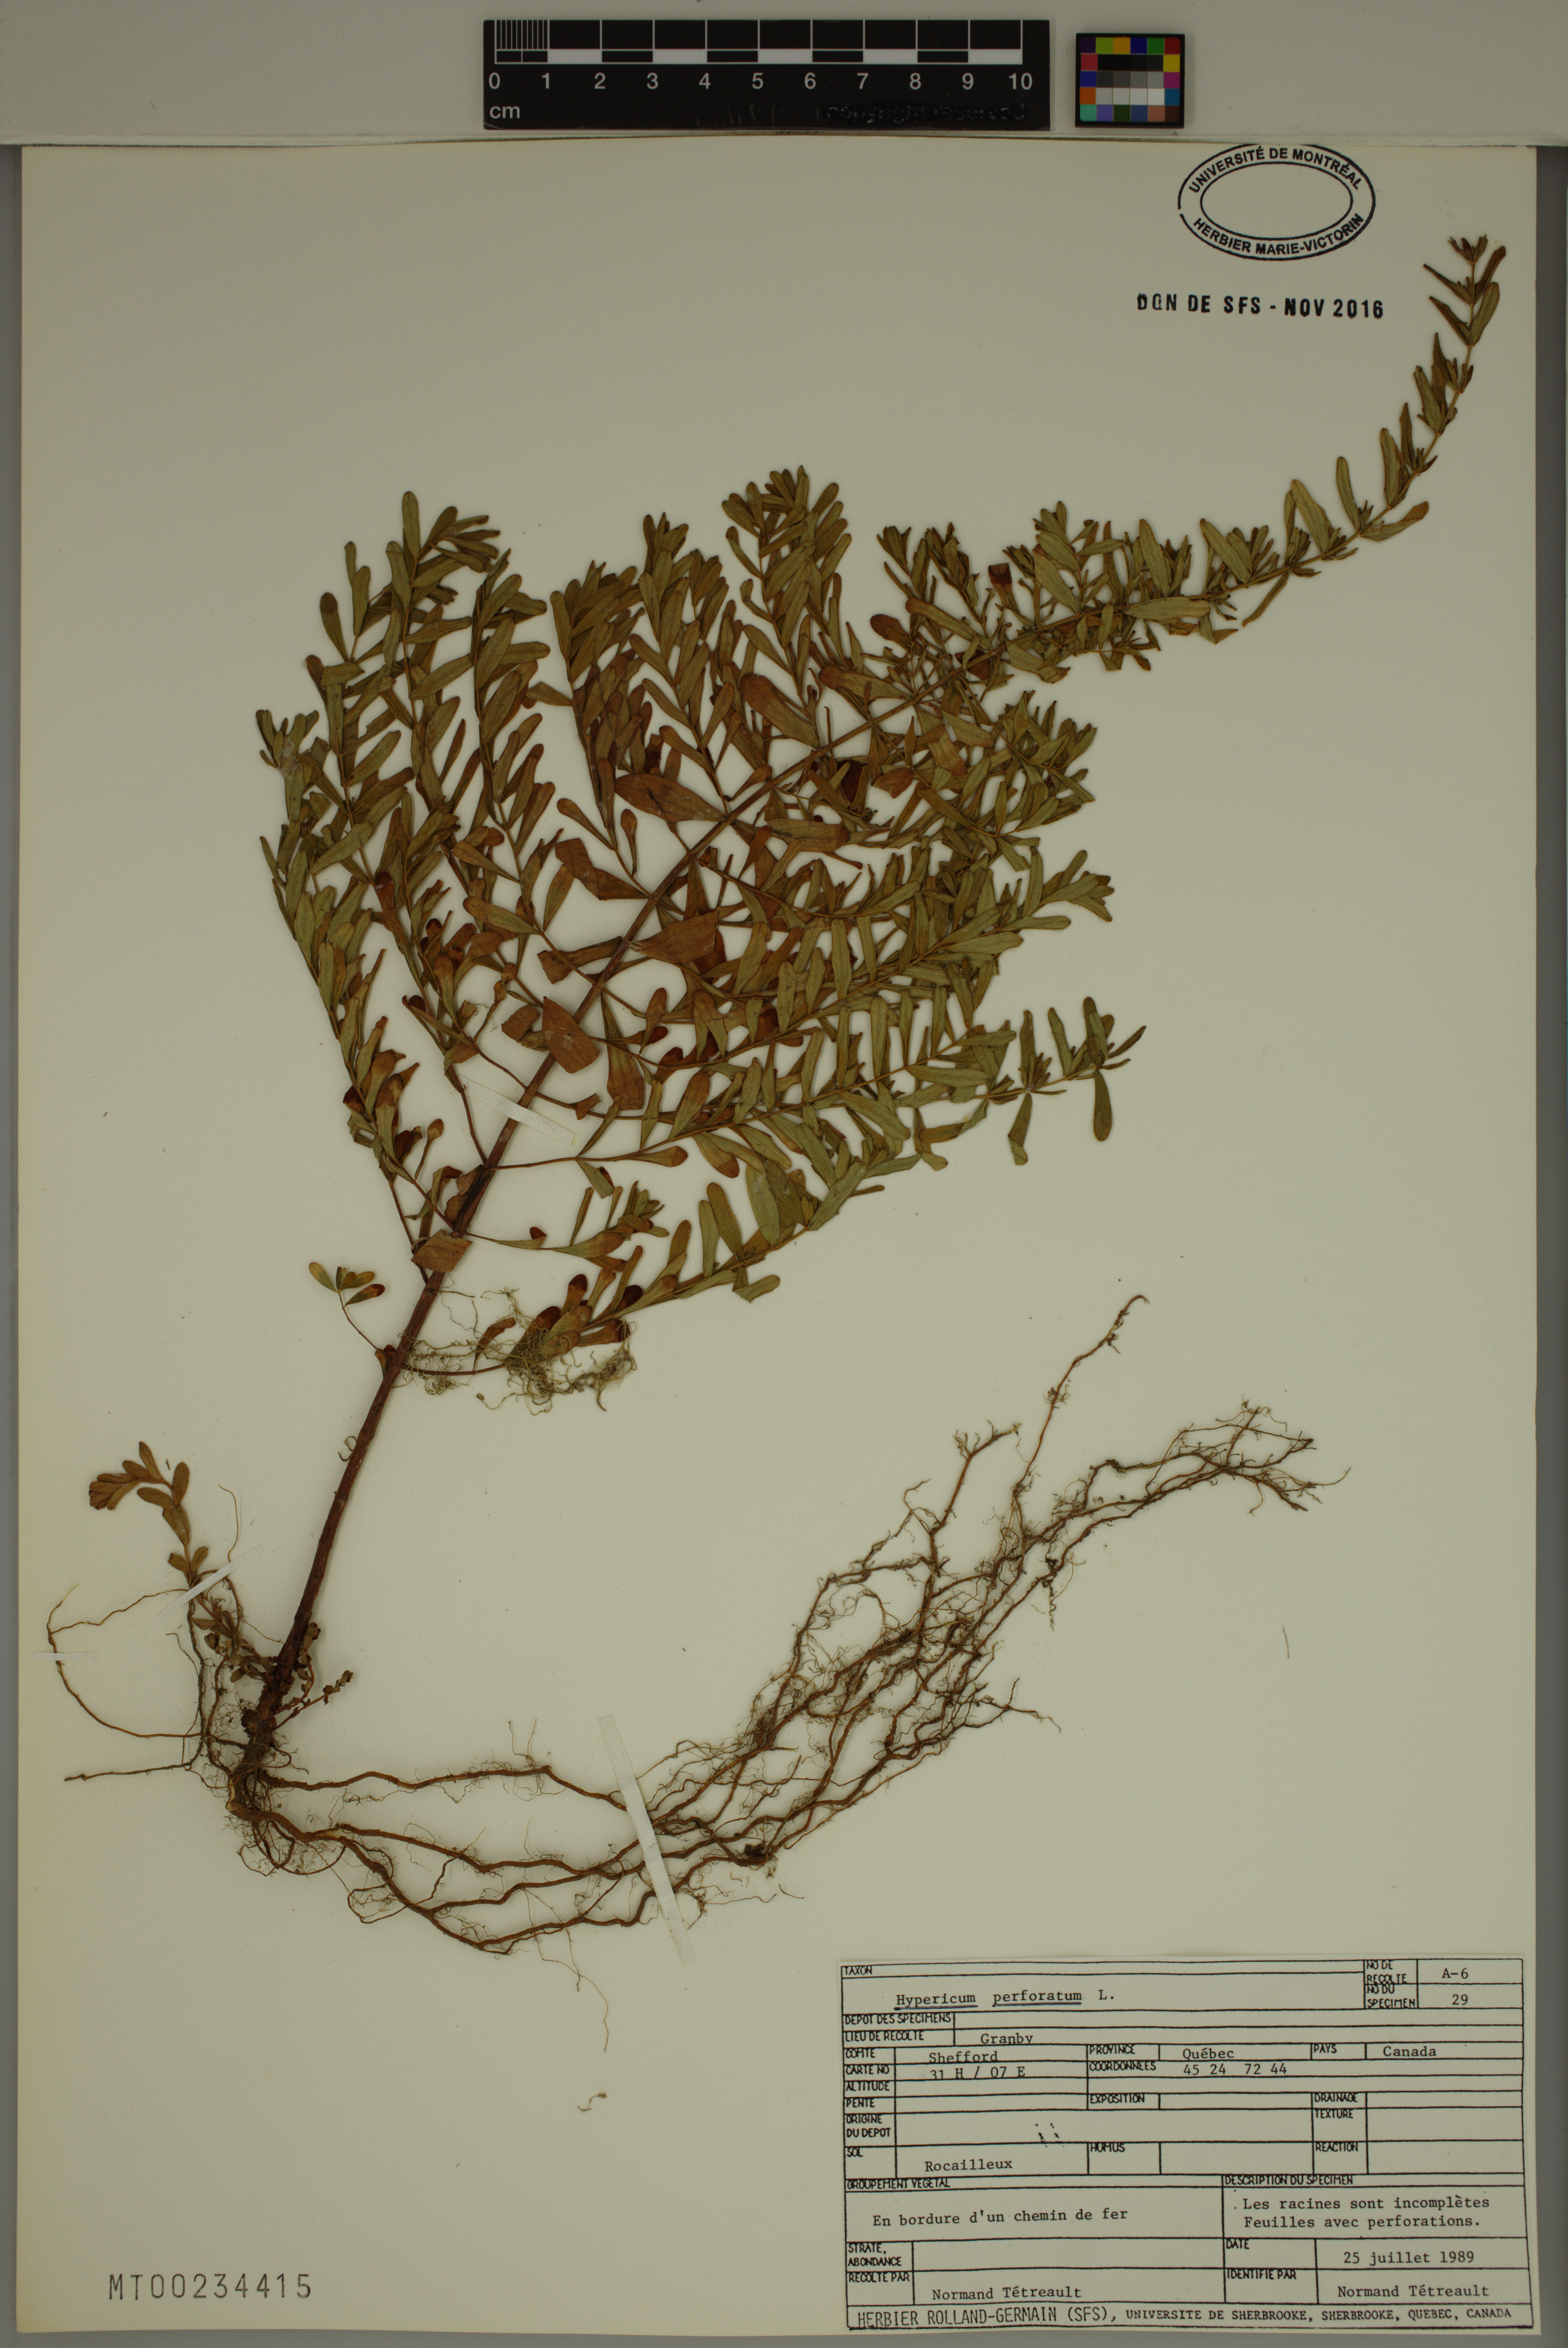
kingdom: Plantae
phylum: Tracheophyta
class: Magnoliopsida
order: Malpighiales
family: Hypericaceae
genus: Hypericum
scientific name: Hypericum perforatum
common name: Common st. johnswort
